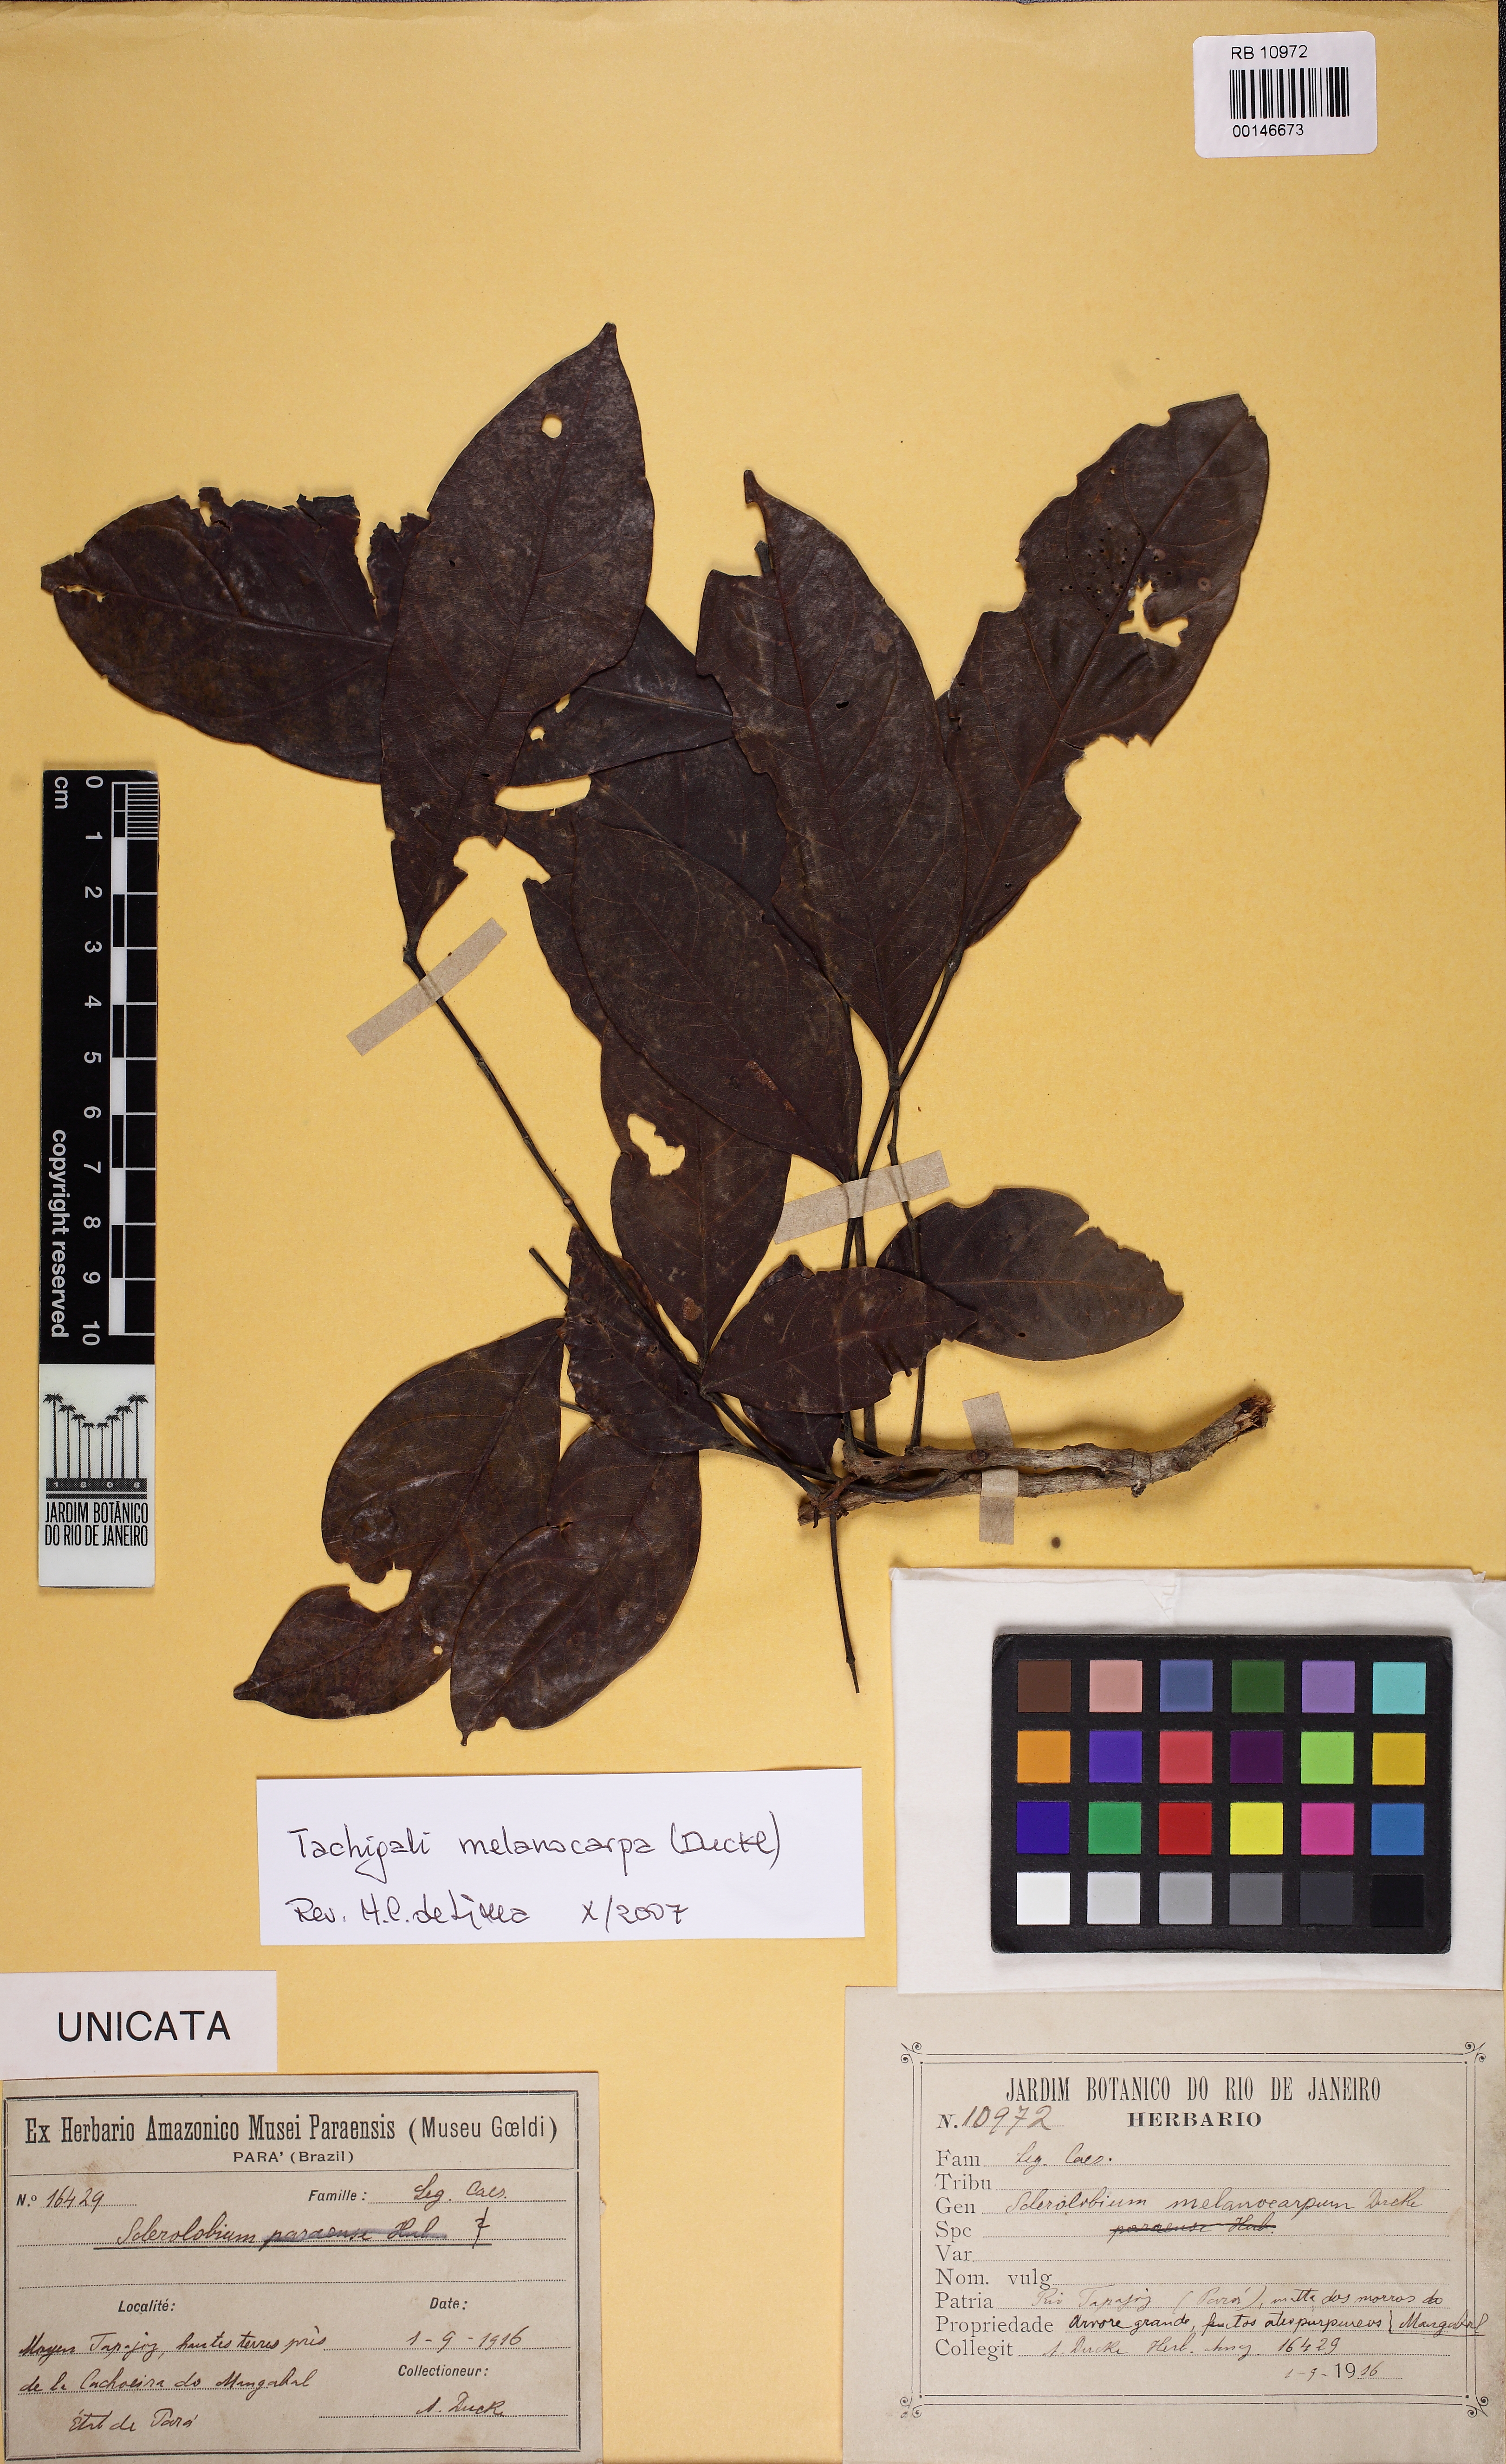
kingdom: Plantae
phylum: Tracheophyta
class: Magnoliopsida
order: Fabales
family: Fabaceae
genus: Tachigali
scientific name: Tachigali melanocarpa
